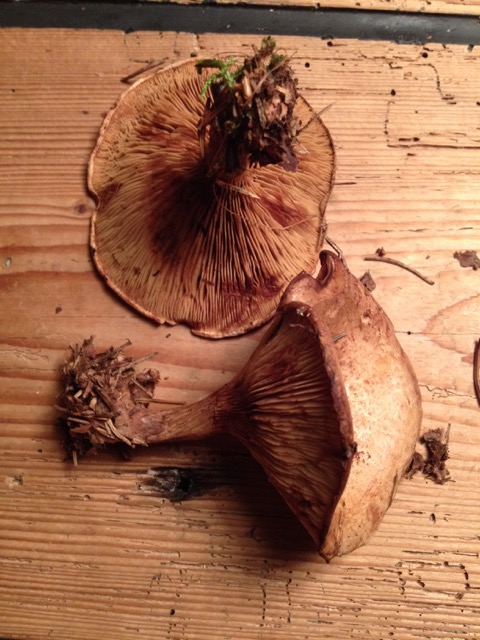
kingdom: Fungi
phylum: Basidiomycota
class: Agaricomycetes
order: Boletales
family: Paxillaceae
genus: Paxillus
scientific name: Paxillus involutus
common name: almindelig netbladhat
